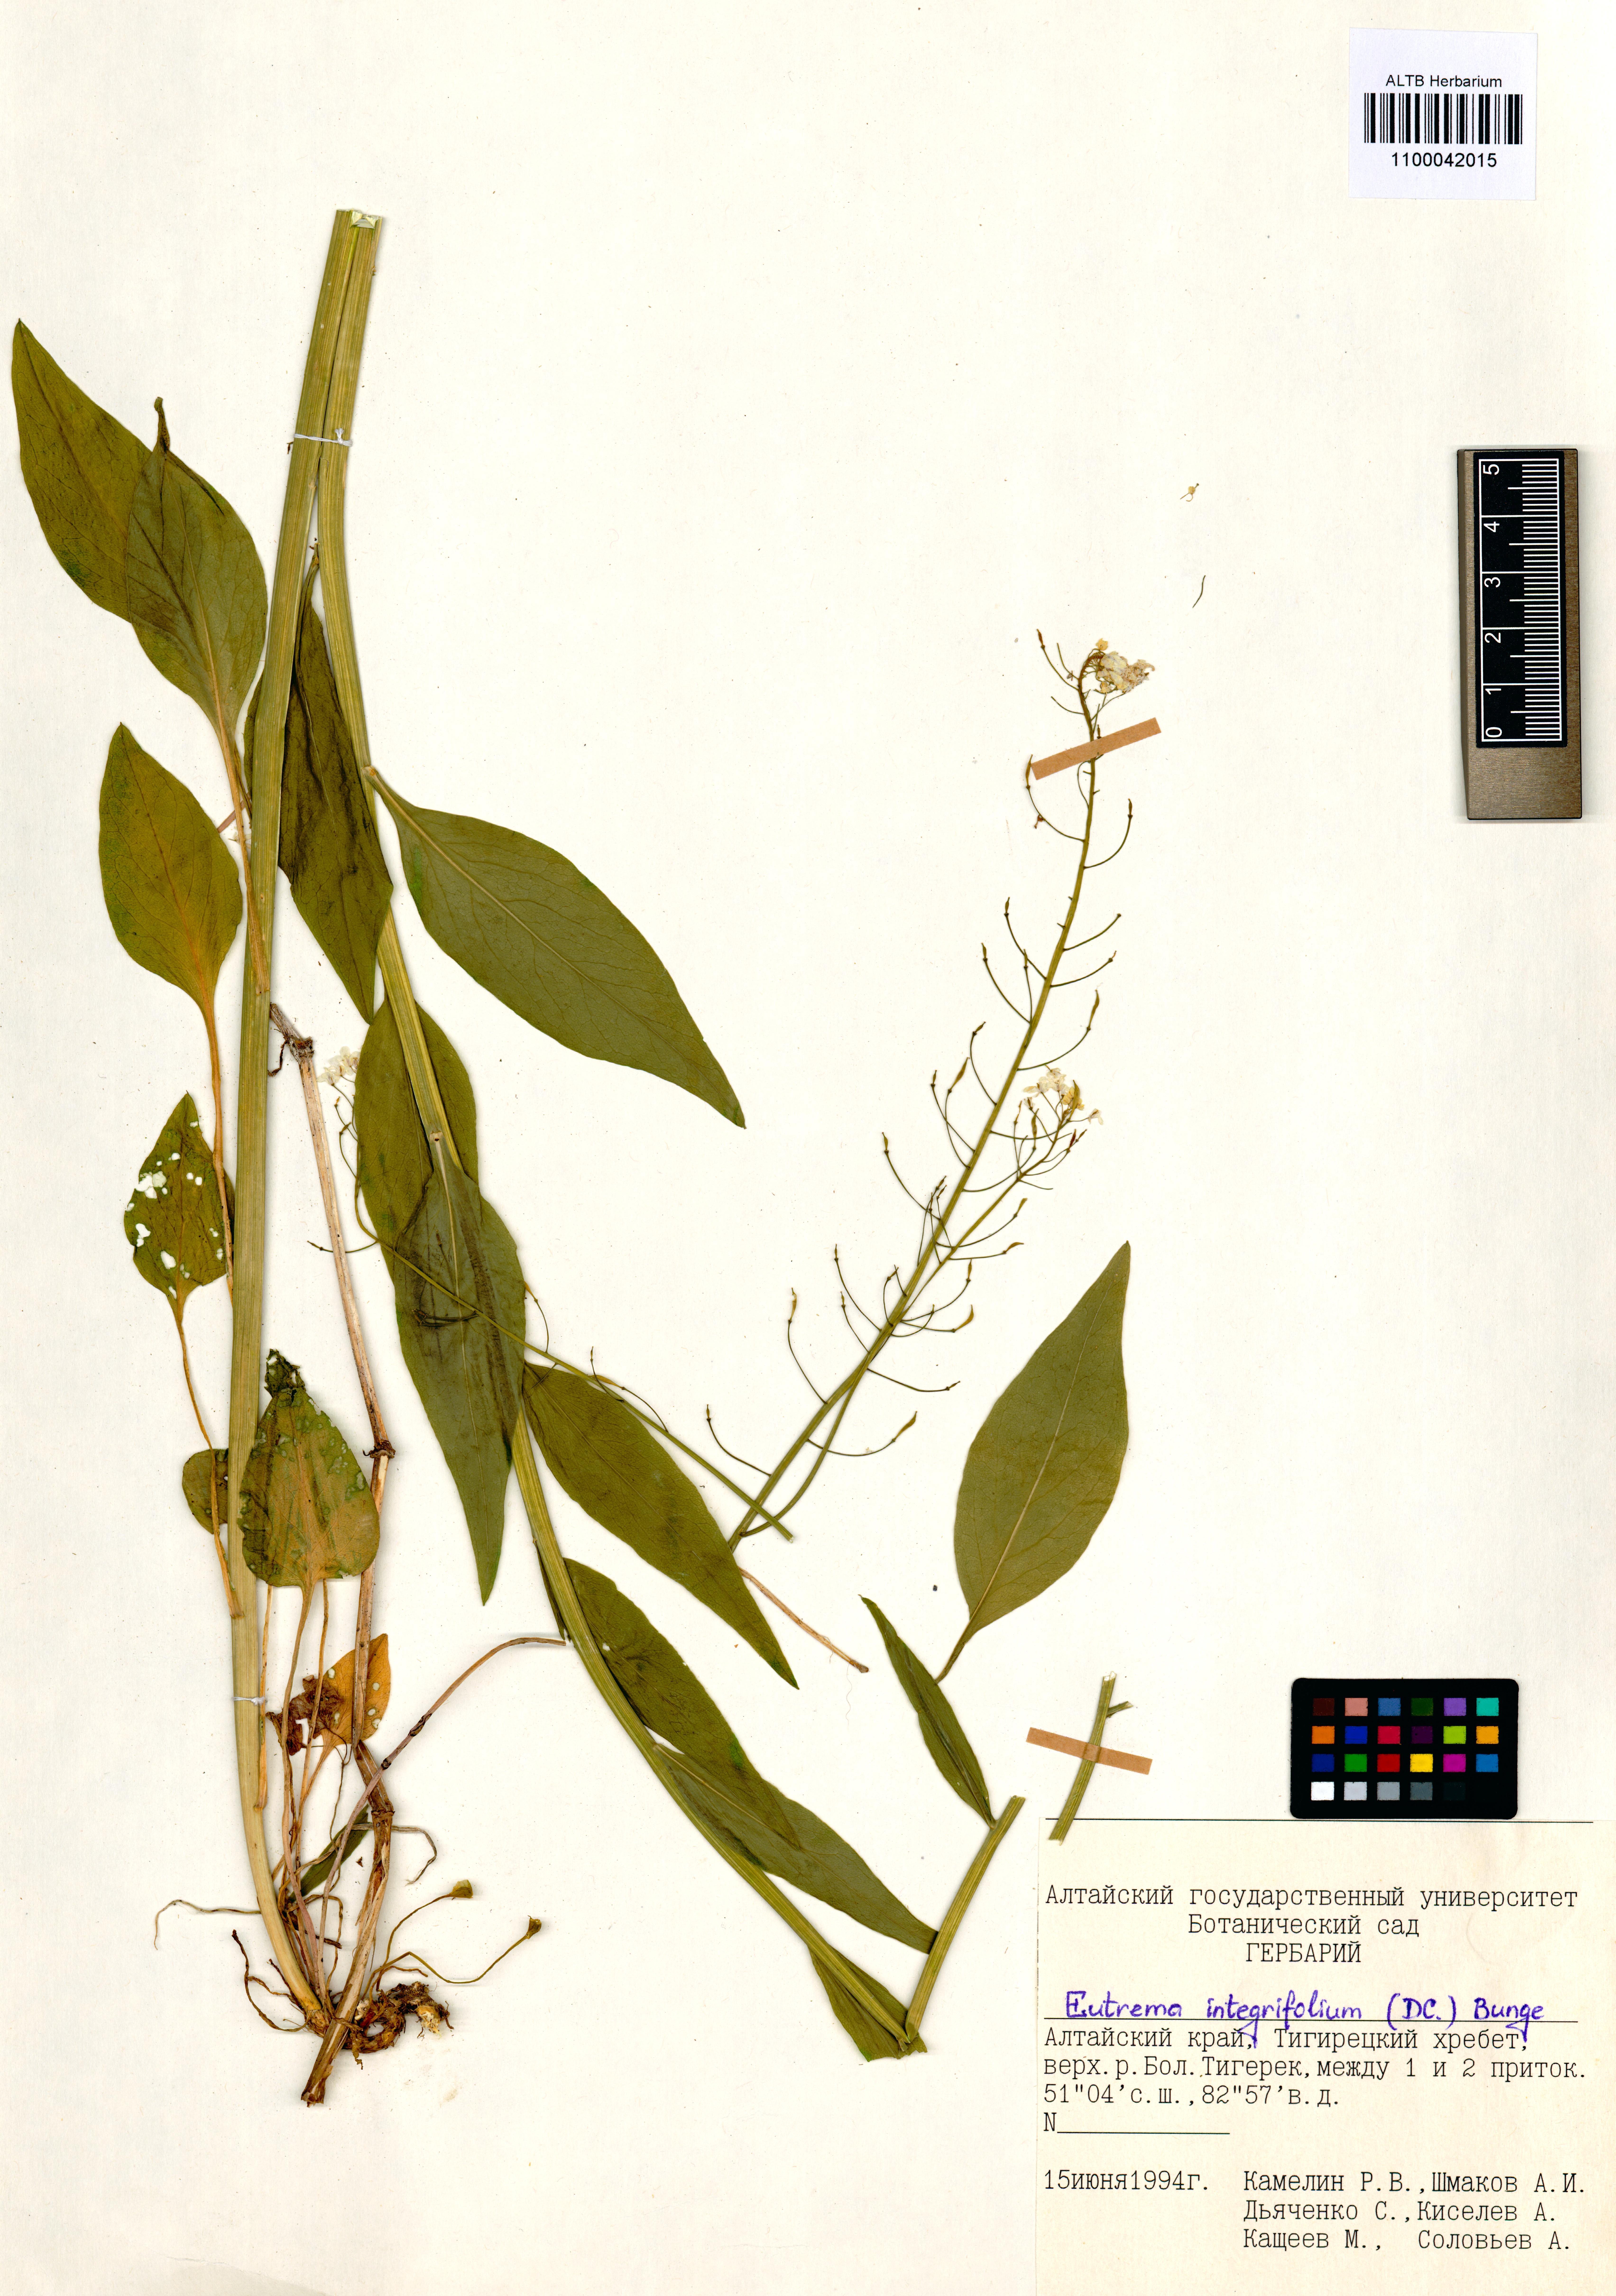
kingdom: Plantae
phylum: Tracheophyta
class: Magnoliopsida
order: Brassicales
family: Brassicaceae
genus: Eutrema
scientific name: Eutrema integrifolium
